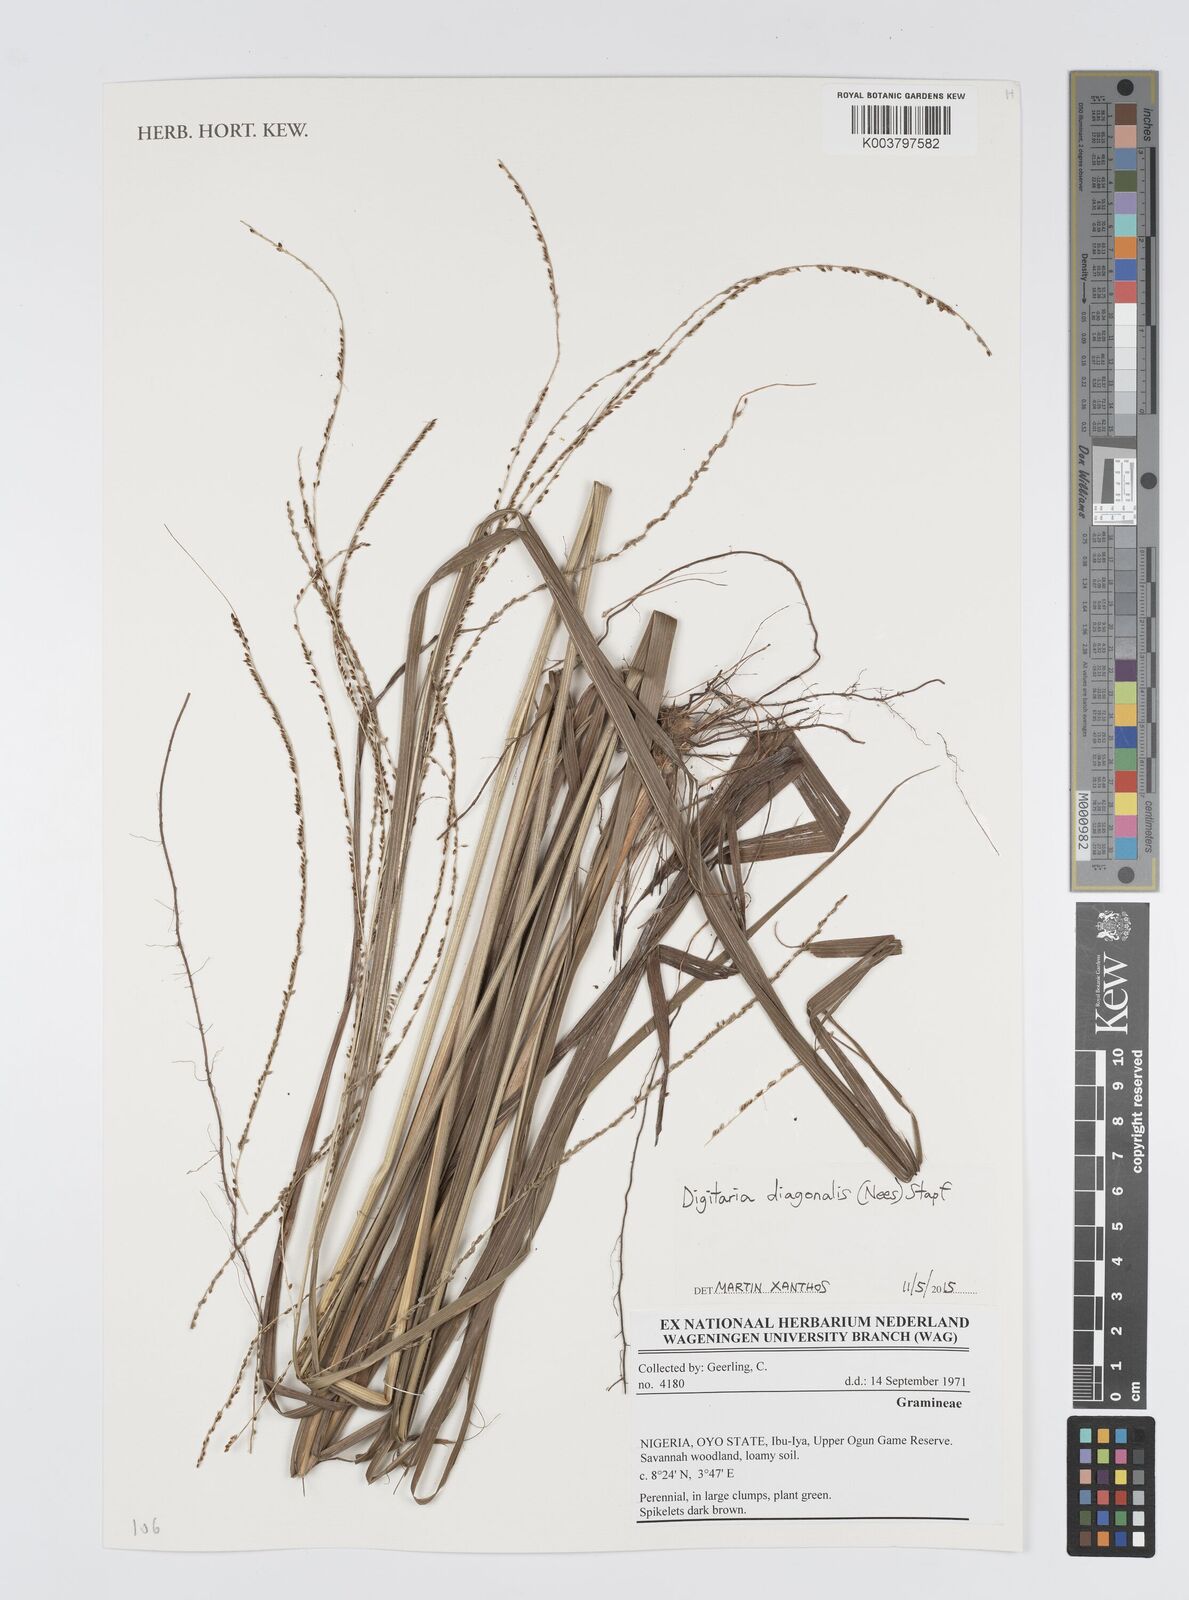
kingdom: Plantae
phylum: Tracheophyta
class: Liliopsida
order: Poales
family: Poaceae
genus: Digitaria
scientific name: Digitaria diagonalis
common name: Brown-seed finger grass
